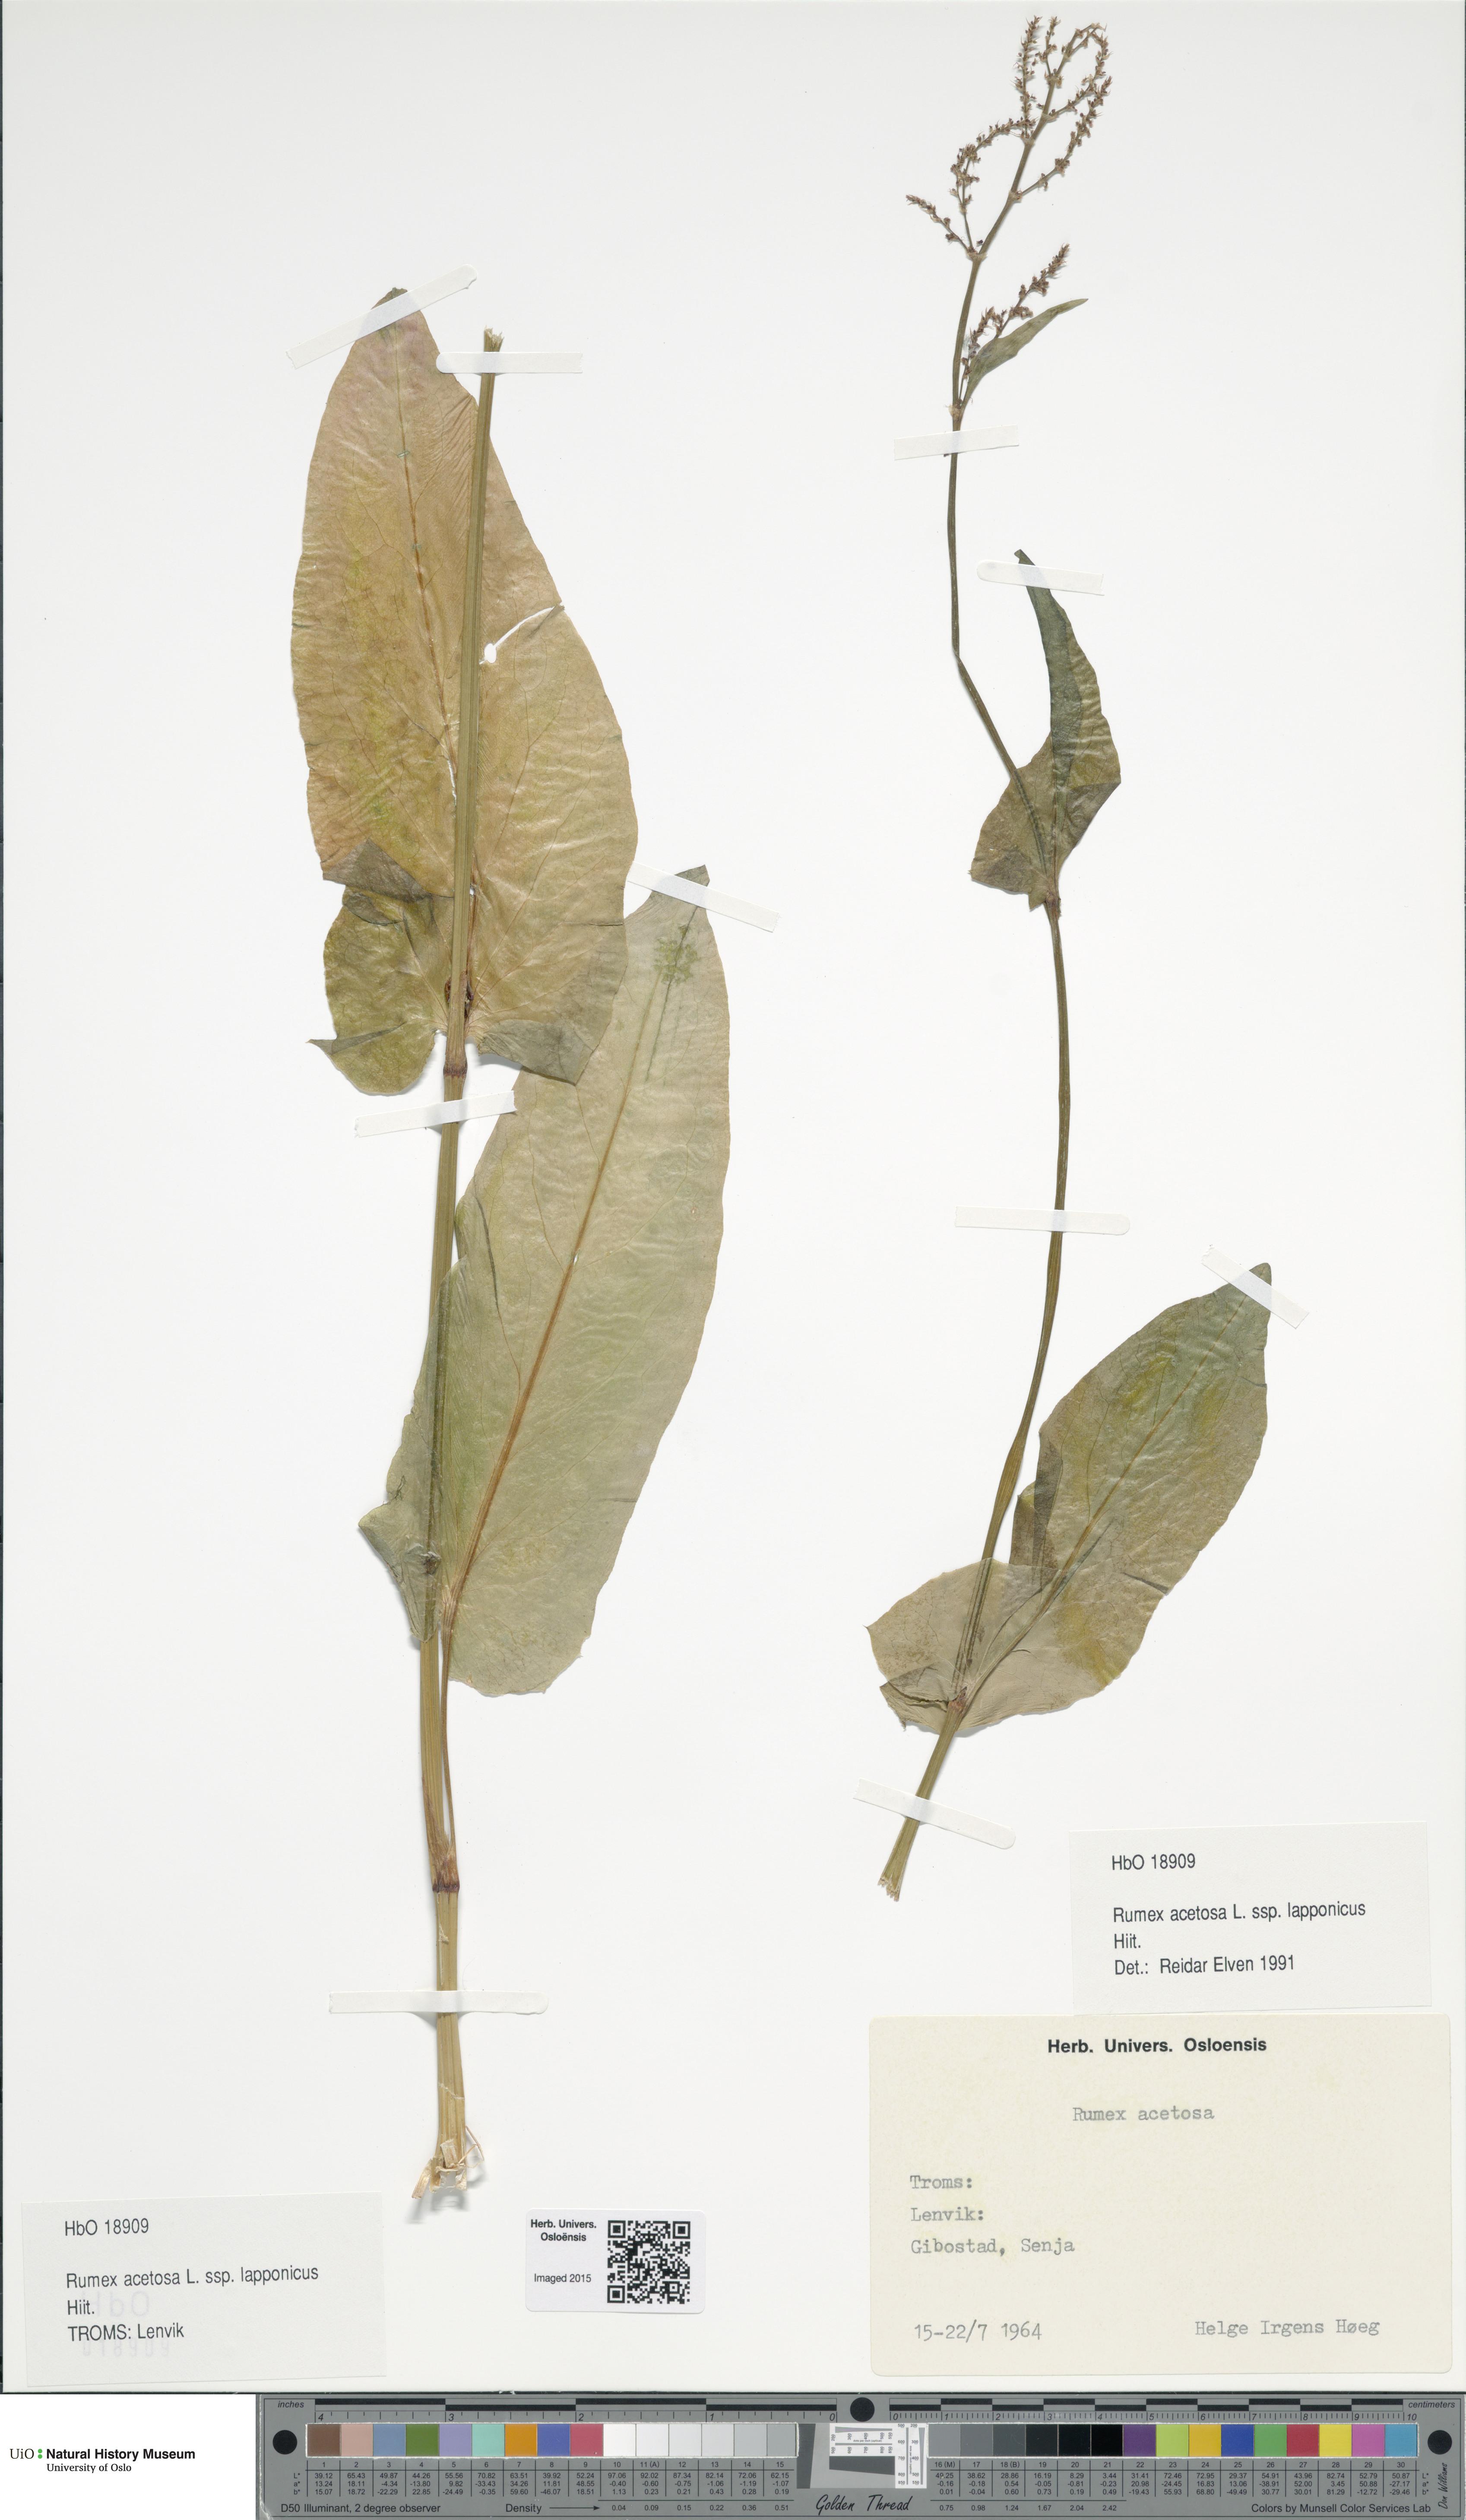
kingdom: Plantae
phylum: Tracheophyta
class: Magnoliopsida
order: Caryophyllales
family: Polygonaceae
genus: Rumex
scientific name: Rumex lapponicus
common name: Lapland mountain sorrel
